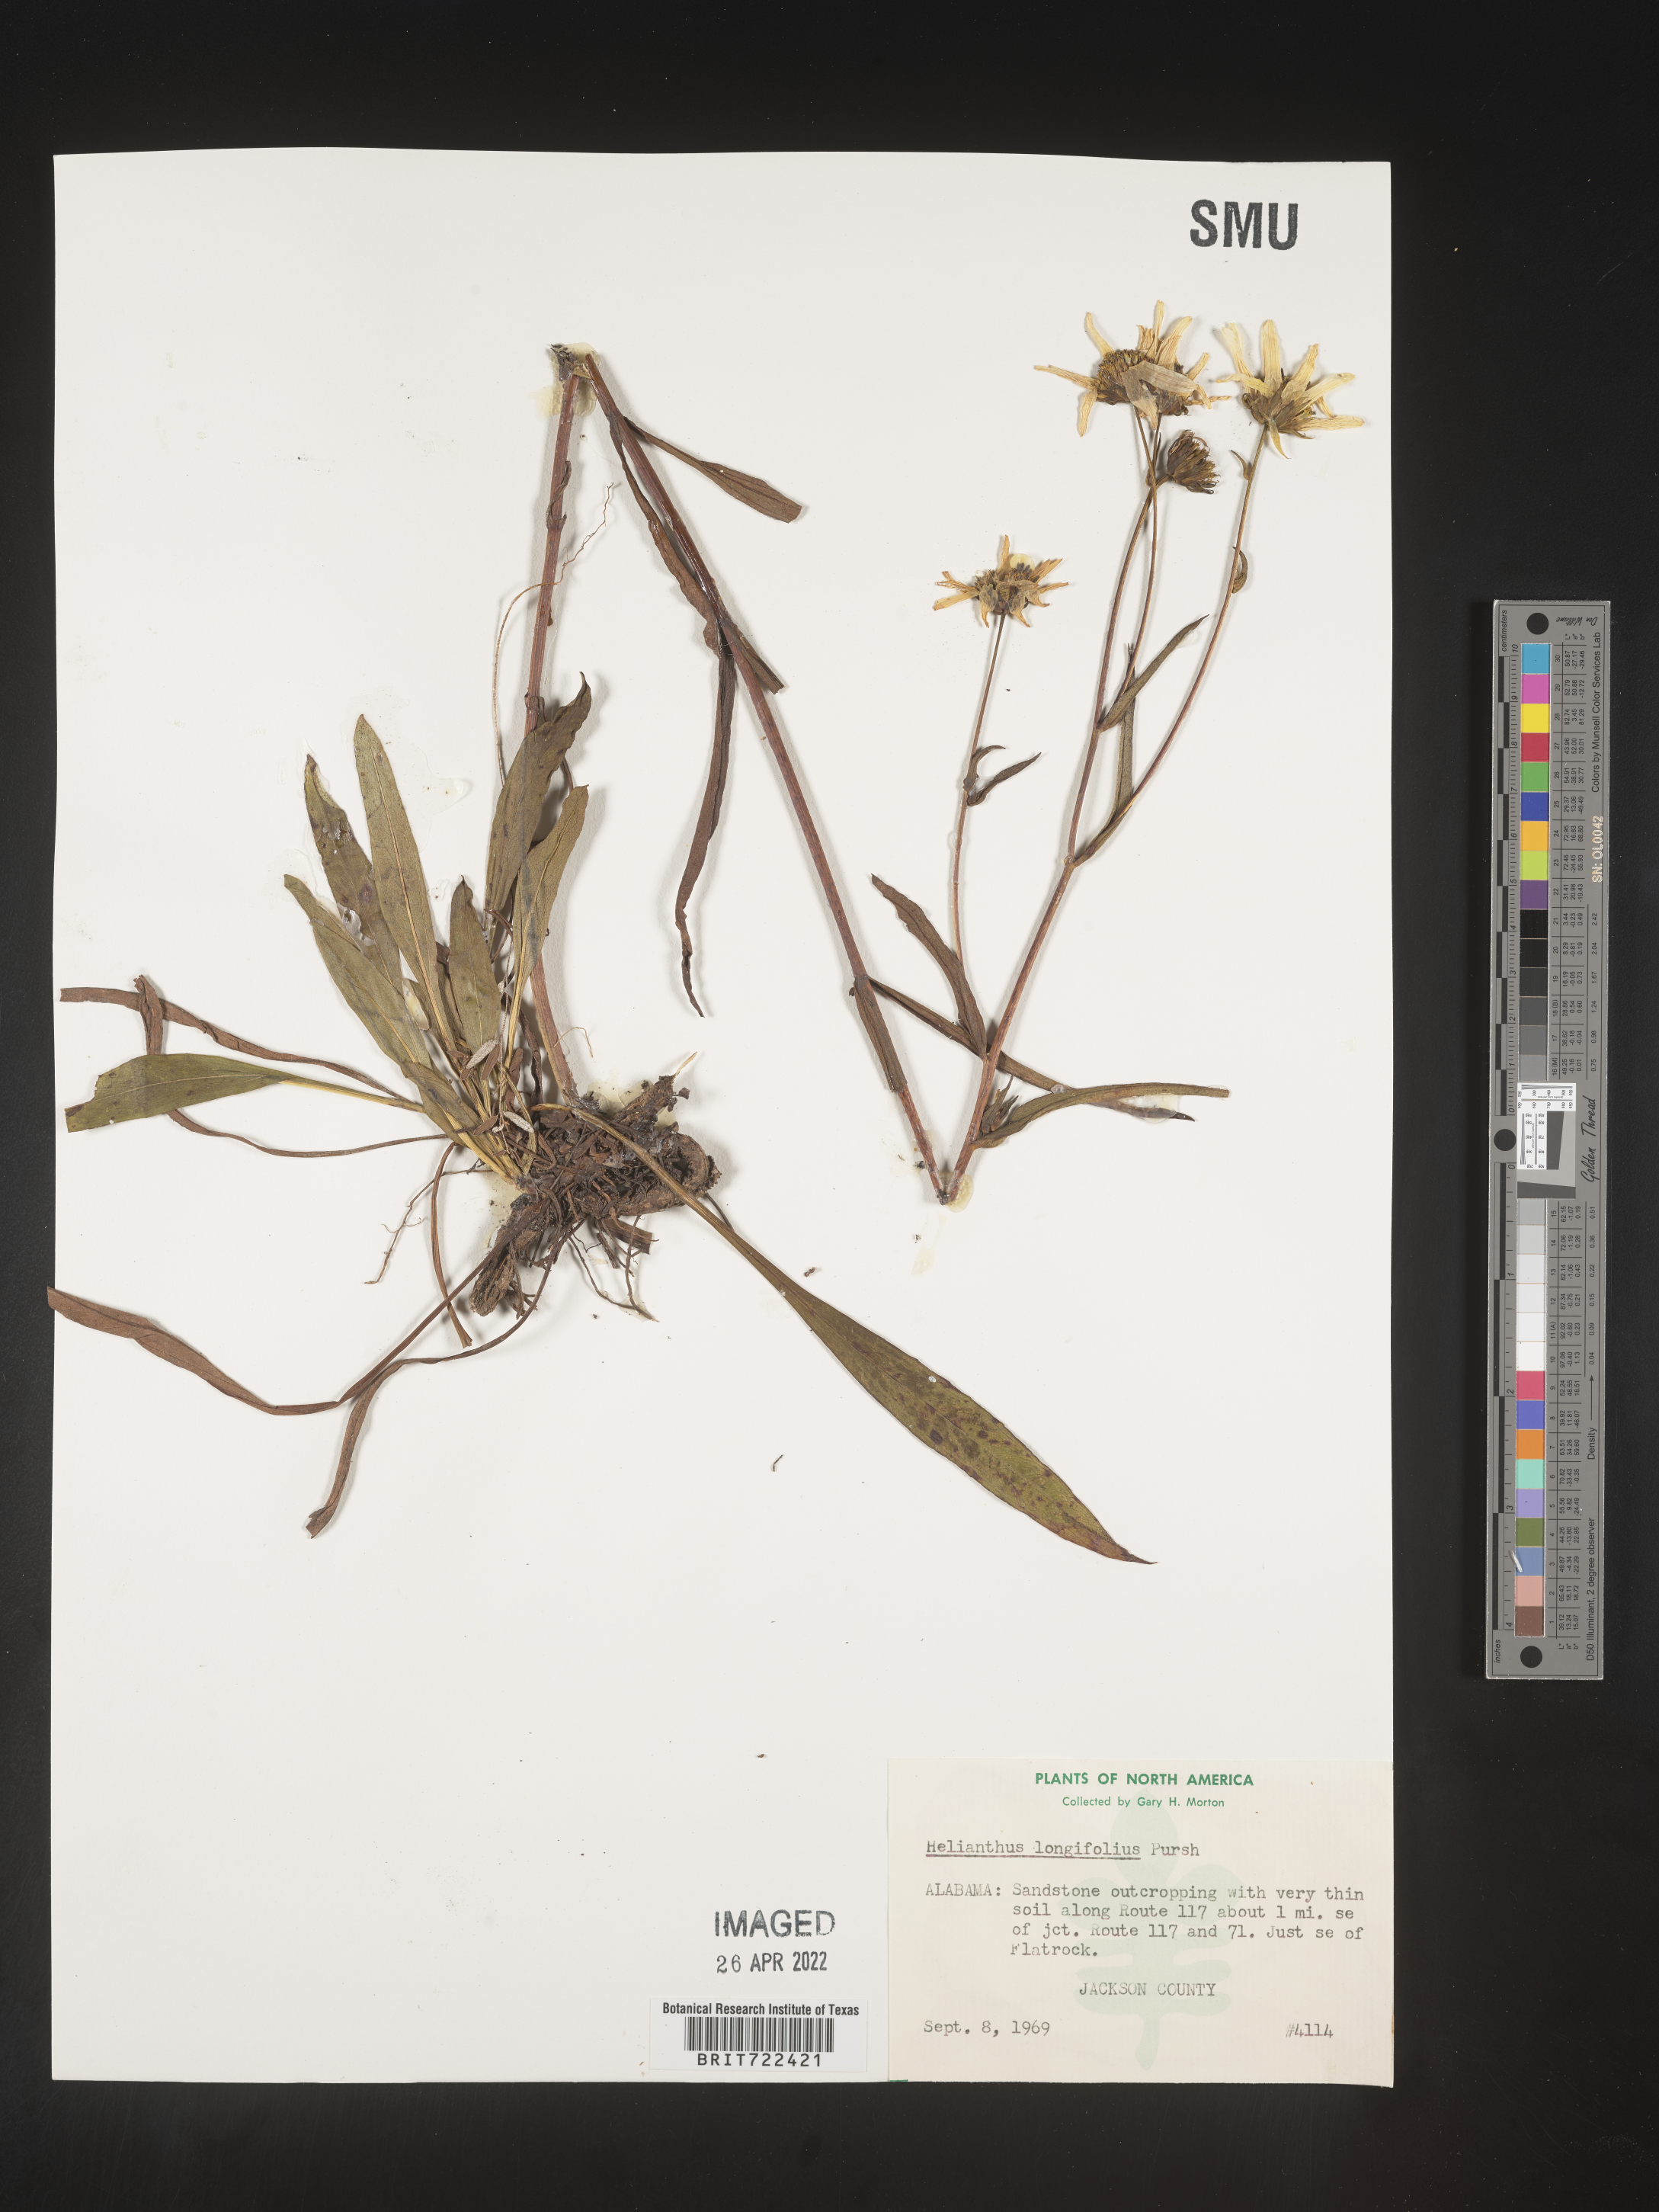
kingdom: Plantae
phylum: Tracheophyta
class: Magnoliopsida
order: Asterales
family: Asteraceae
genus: Helianthus
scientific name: Helianthus
